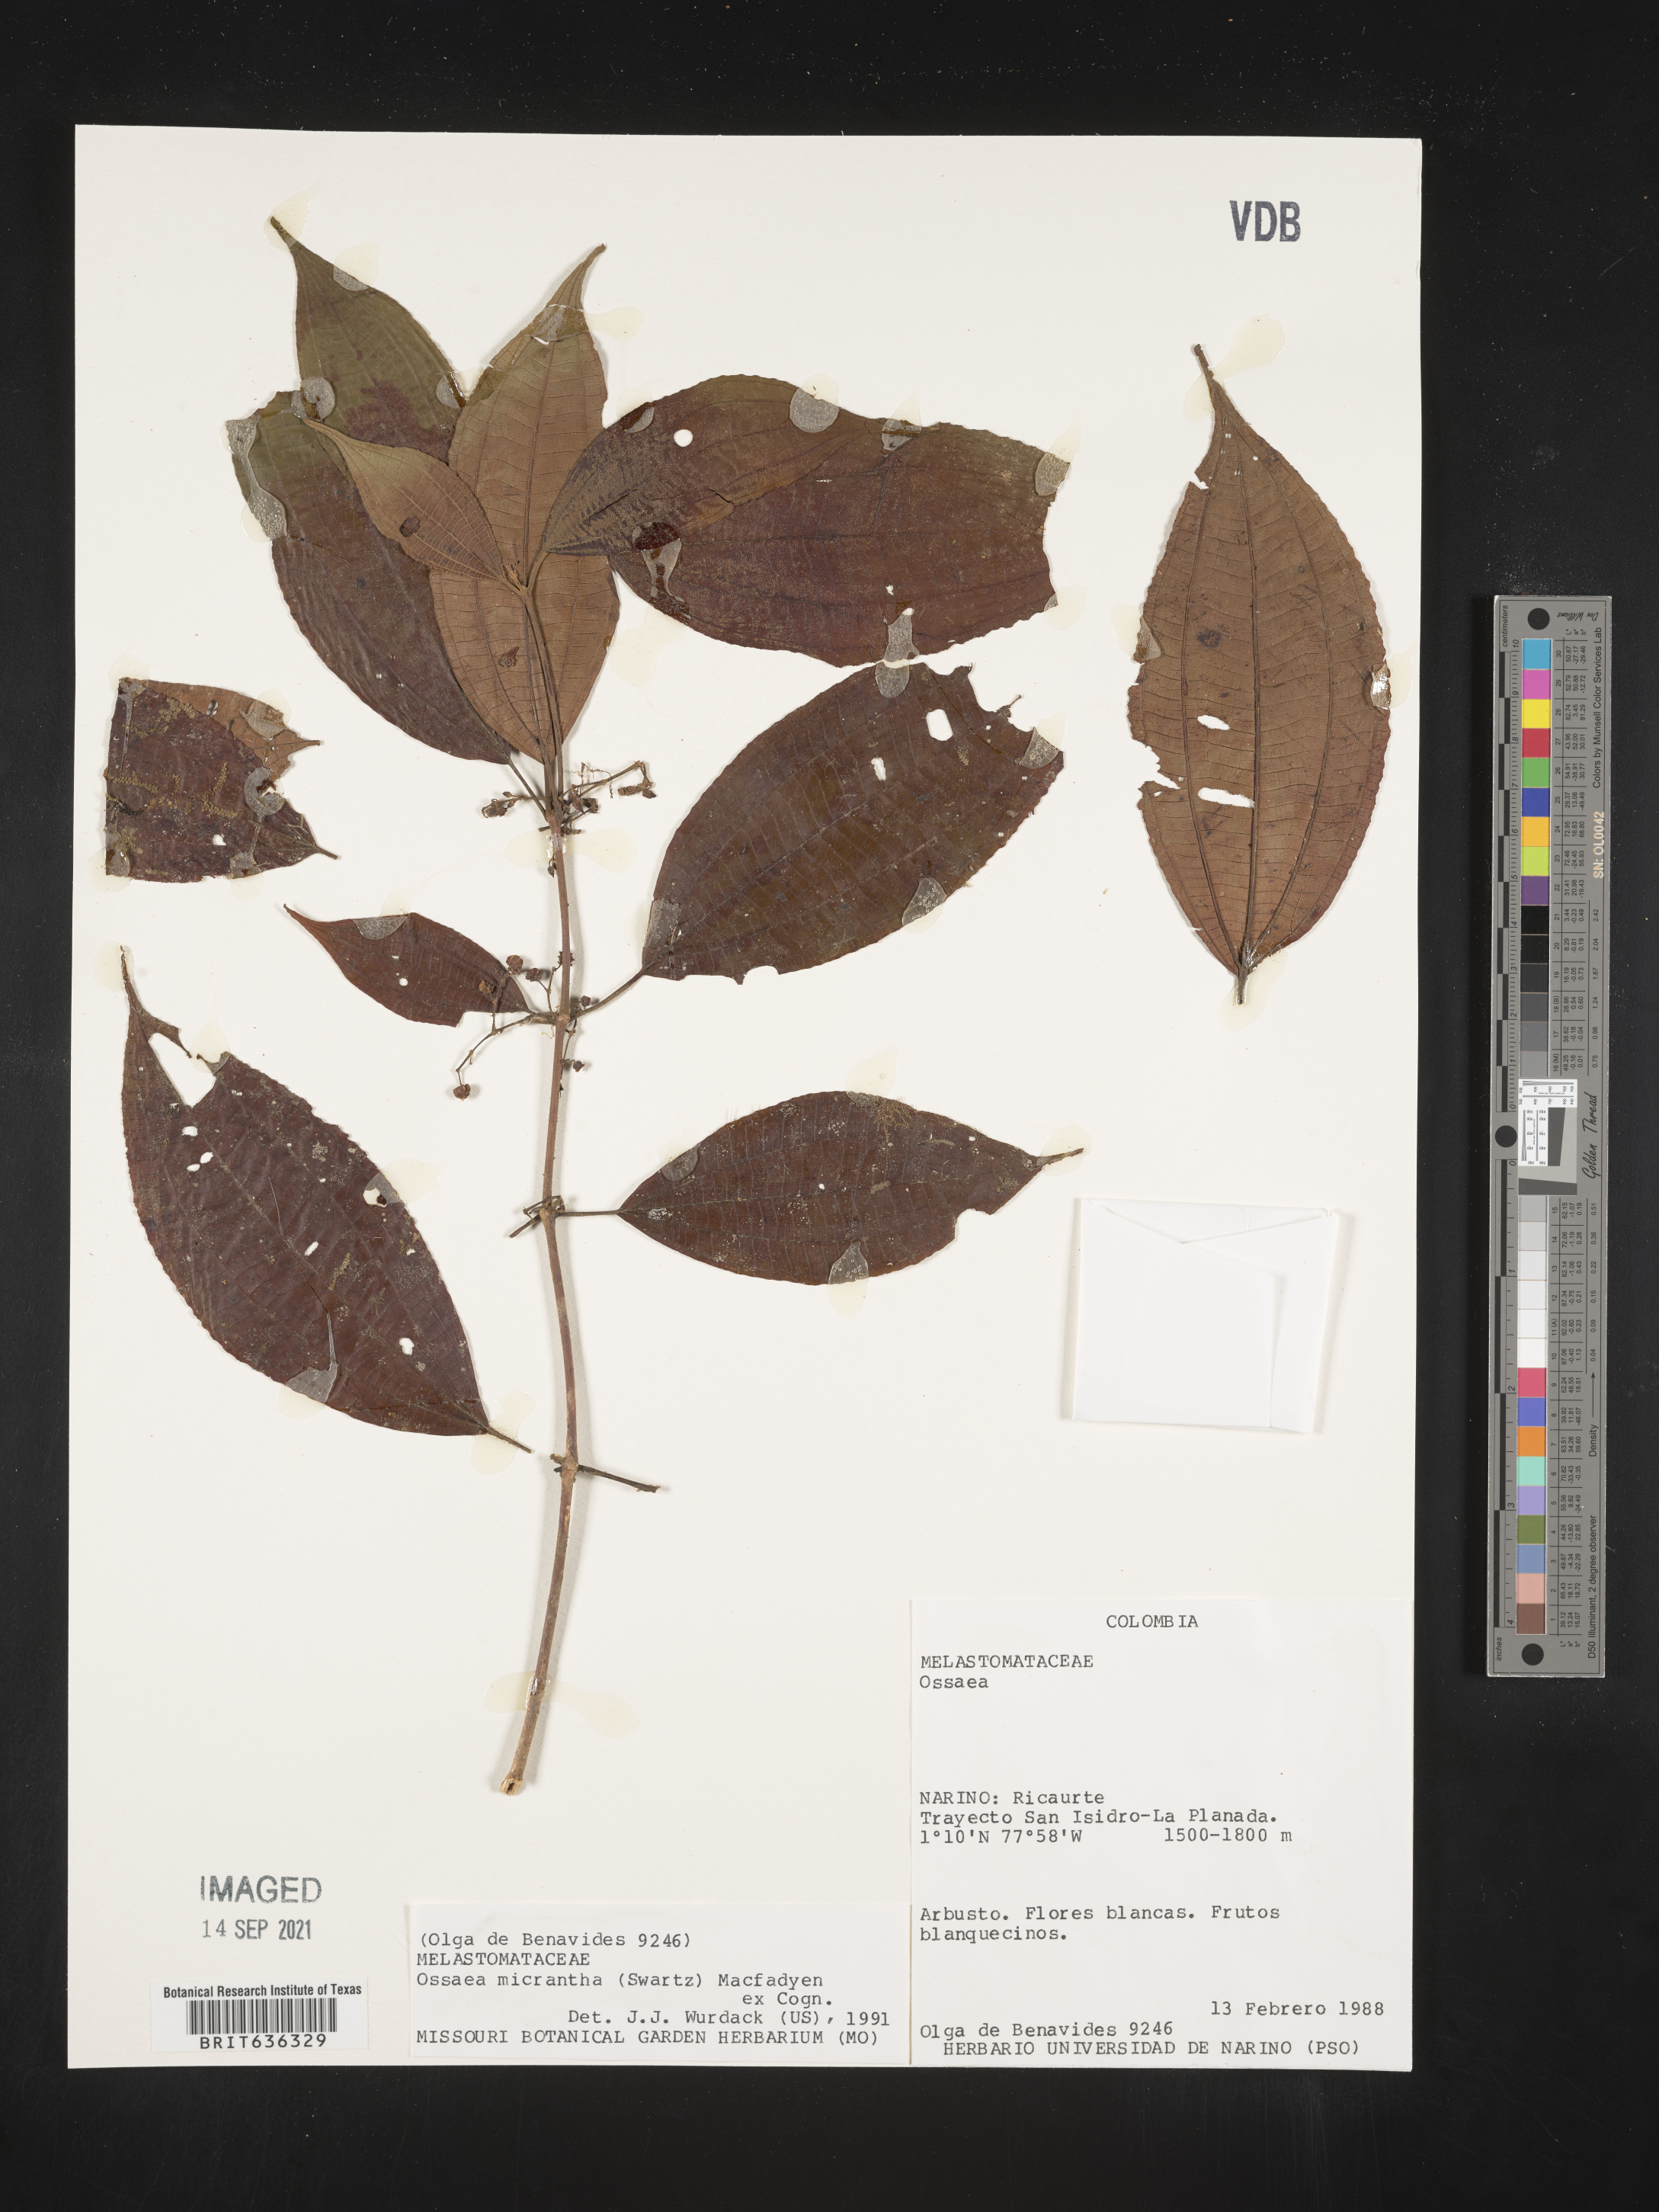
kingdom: Plantae
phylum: Tracheophyta
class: Magnoliopsida
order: Myrtales
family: Melastomataceae
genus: Ossaea
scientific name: Ossaea
